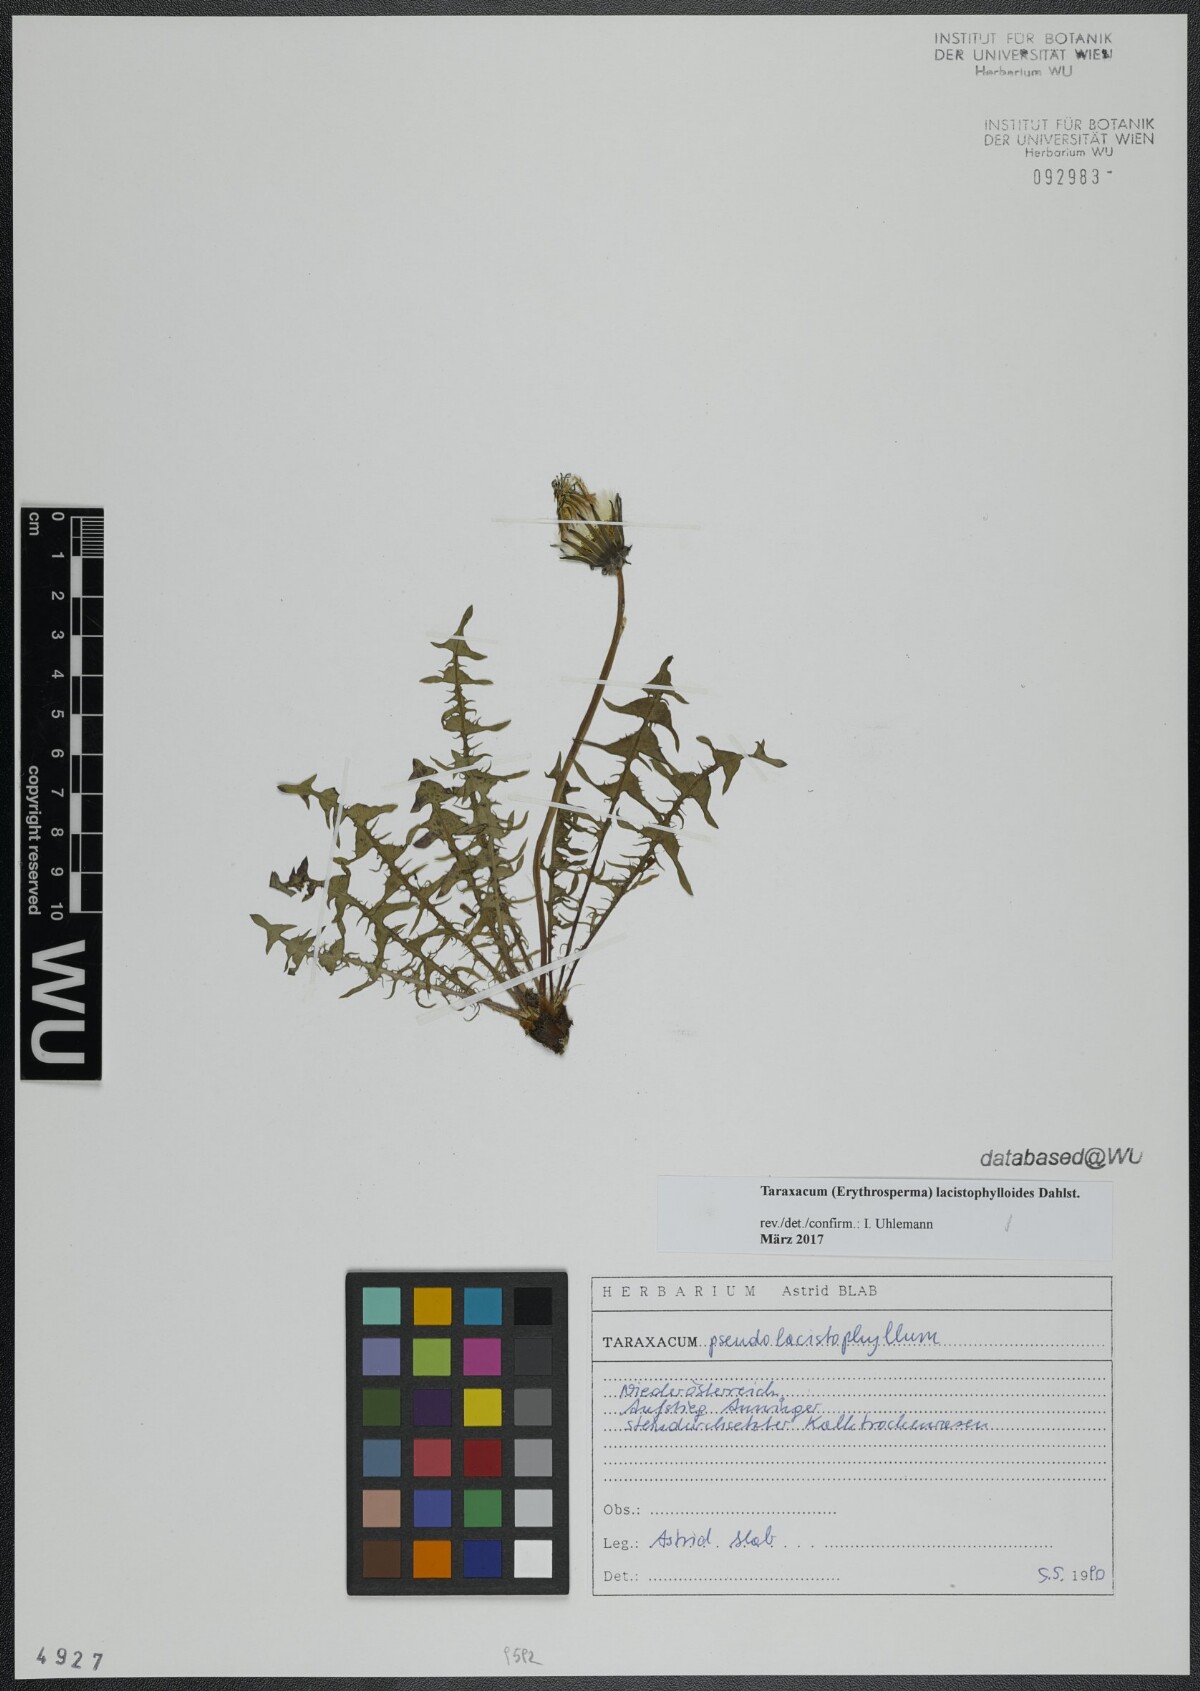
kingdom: Plantae
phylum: Tracheophyta
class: Magnoliopsida
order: Asterales
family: Asteraceae
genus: Taraxacum
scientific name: Taraxacum lacistophylloides
